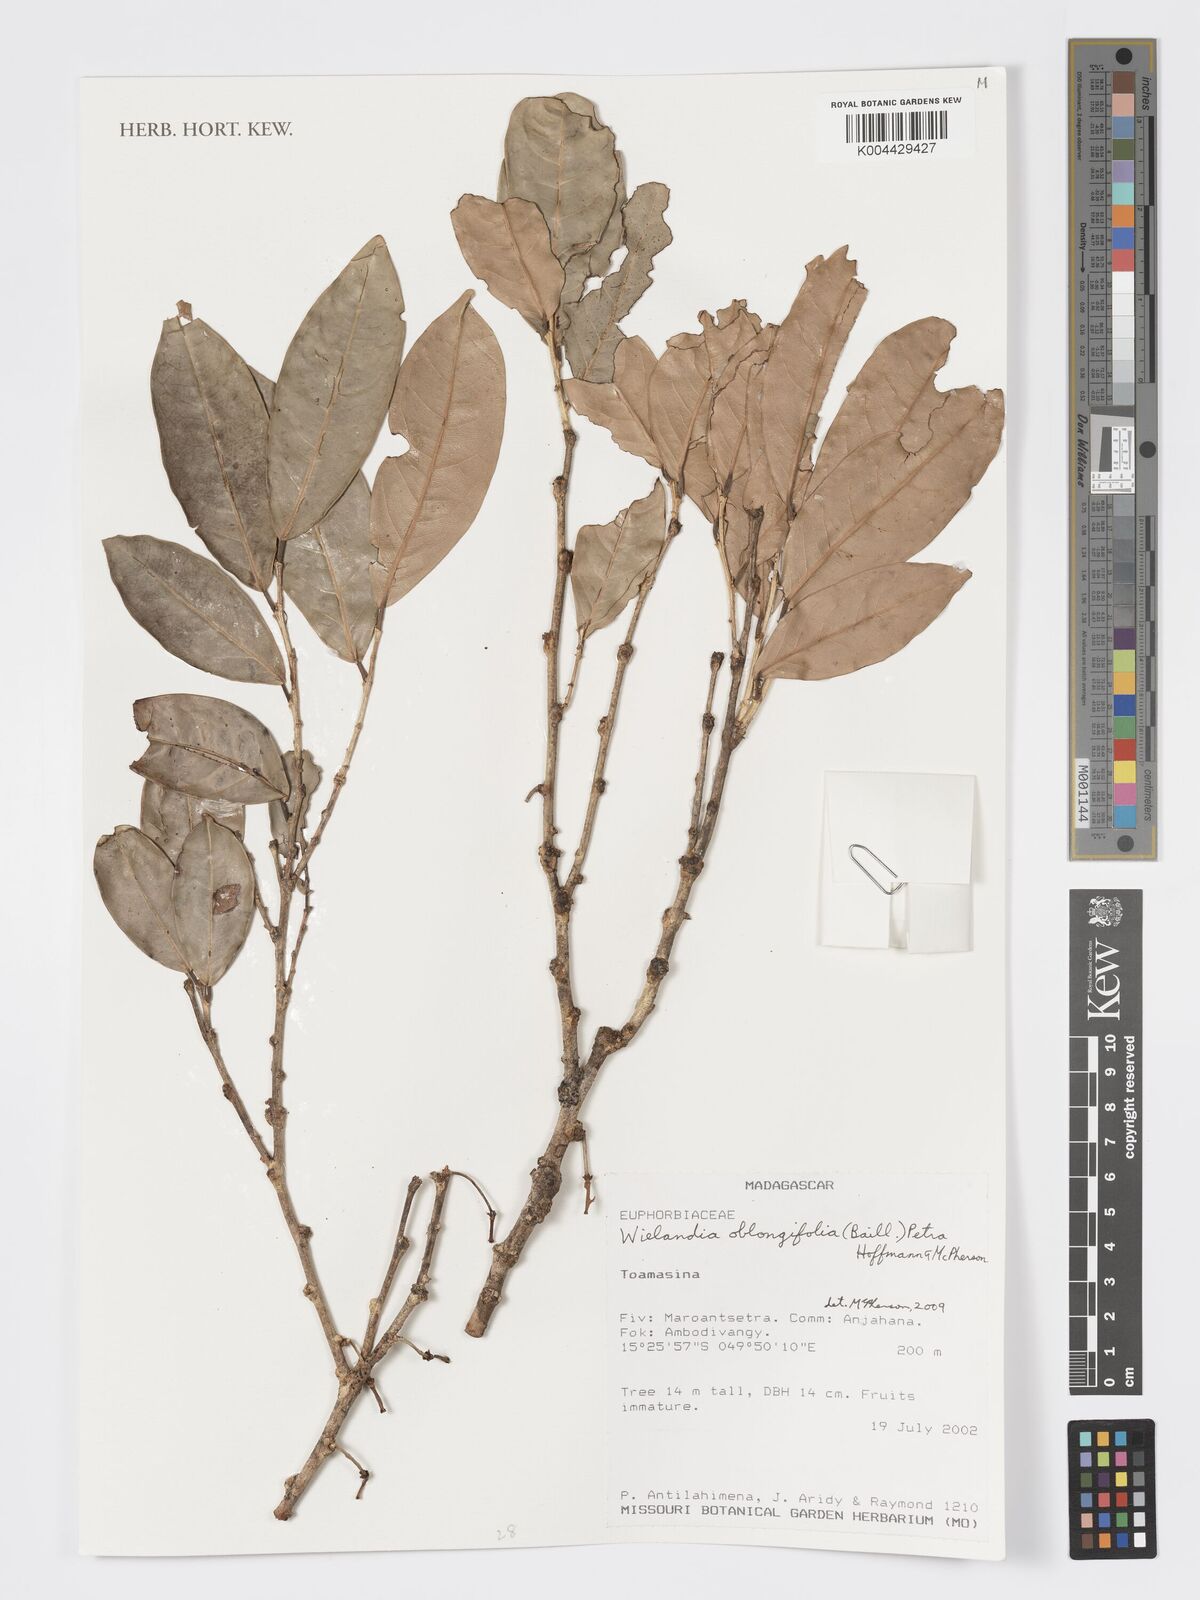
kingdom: Plantae
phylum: Tracheophyta
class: Magnoliopsida
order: Malpighiales
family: Phyllanthaceae
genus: Wielandia
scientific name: Wielandia oblongifolia
